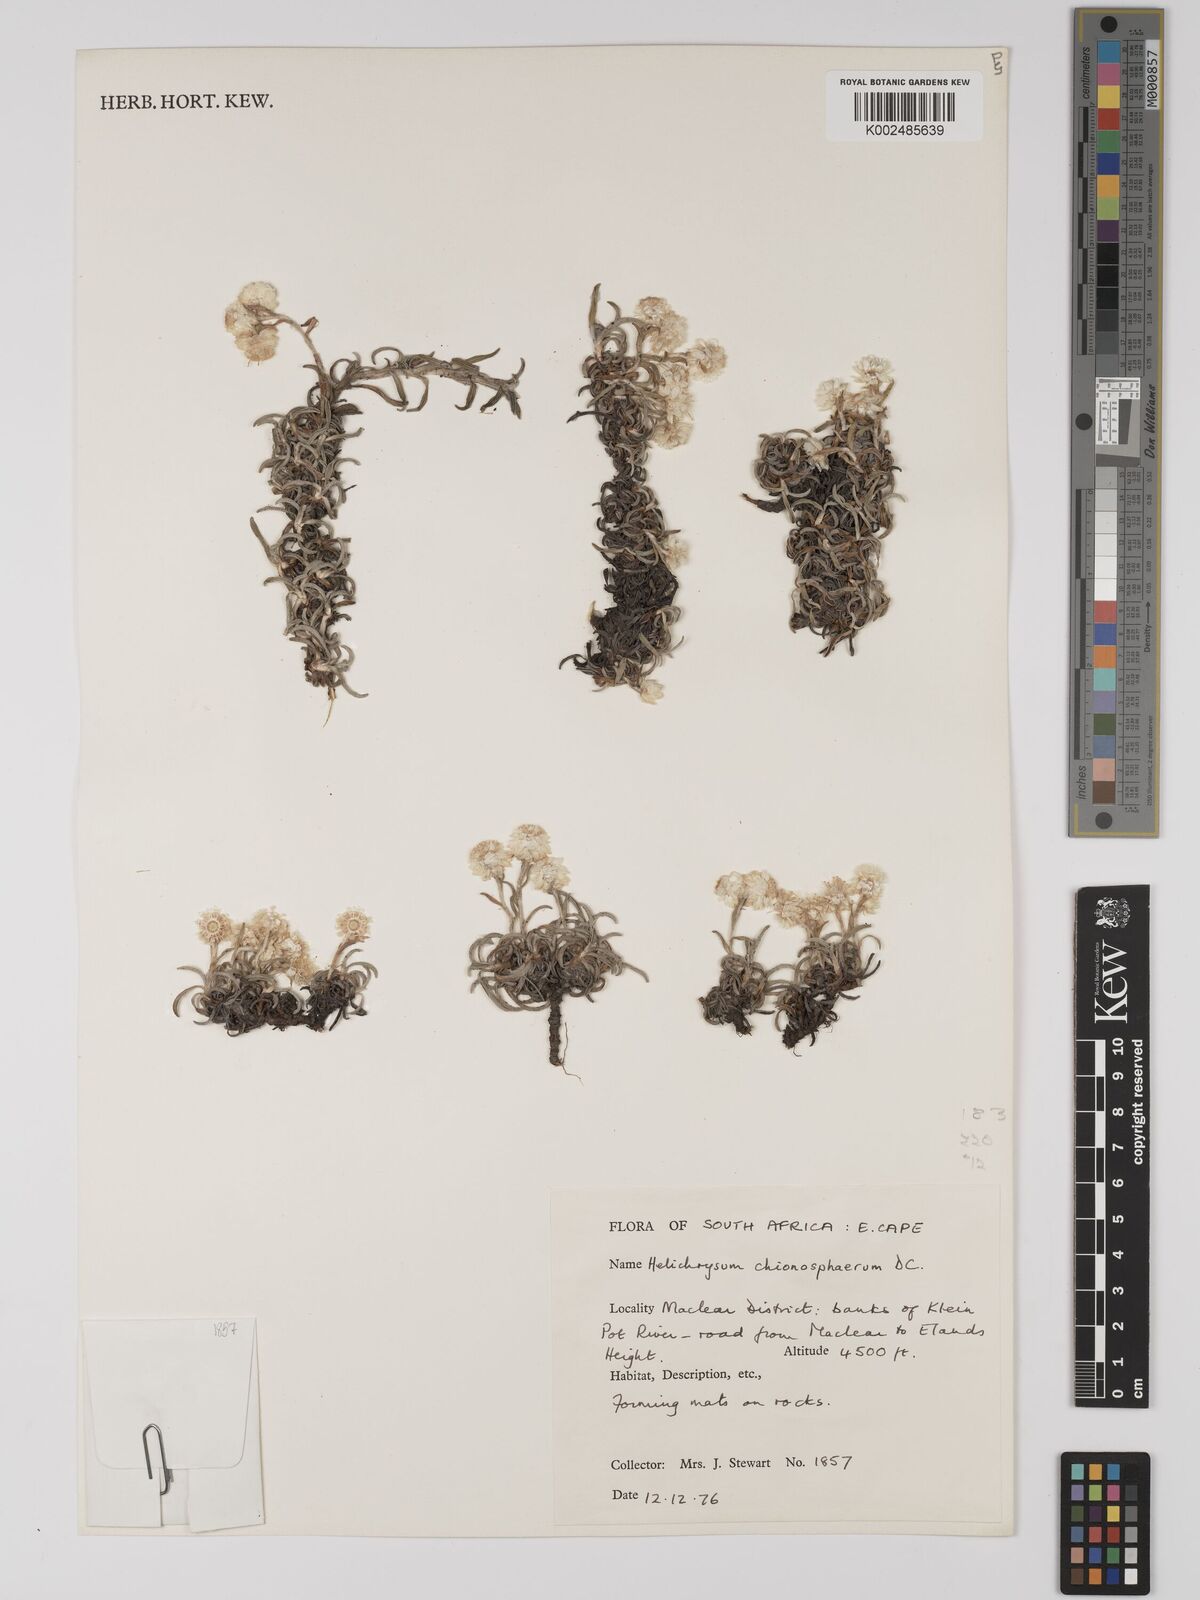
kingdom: Plantae
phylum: Tracheophyta
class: Magnoliopsida
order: Asterales
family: Asteraceae
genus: Helichrysum
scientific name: Helichrysum chionosphaerum
